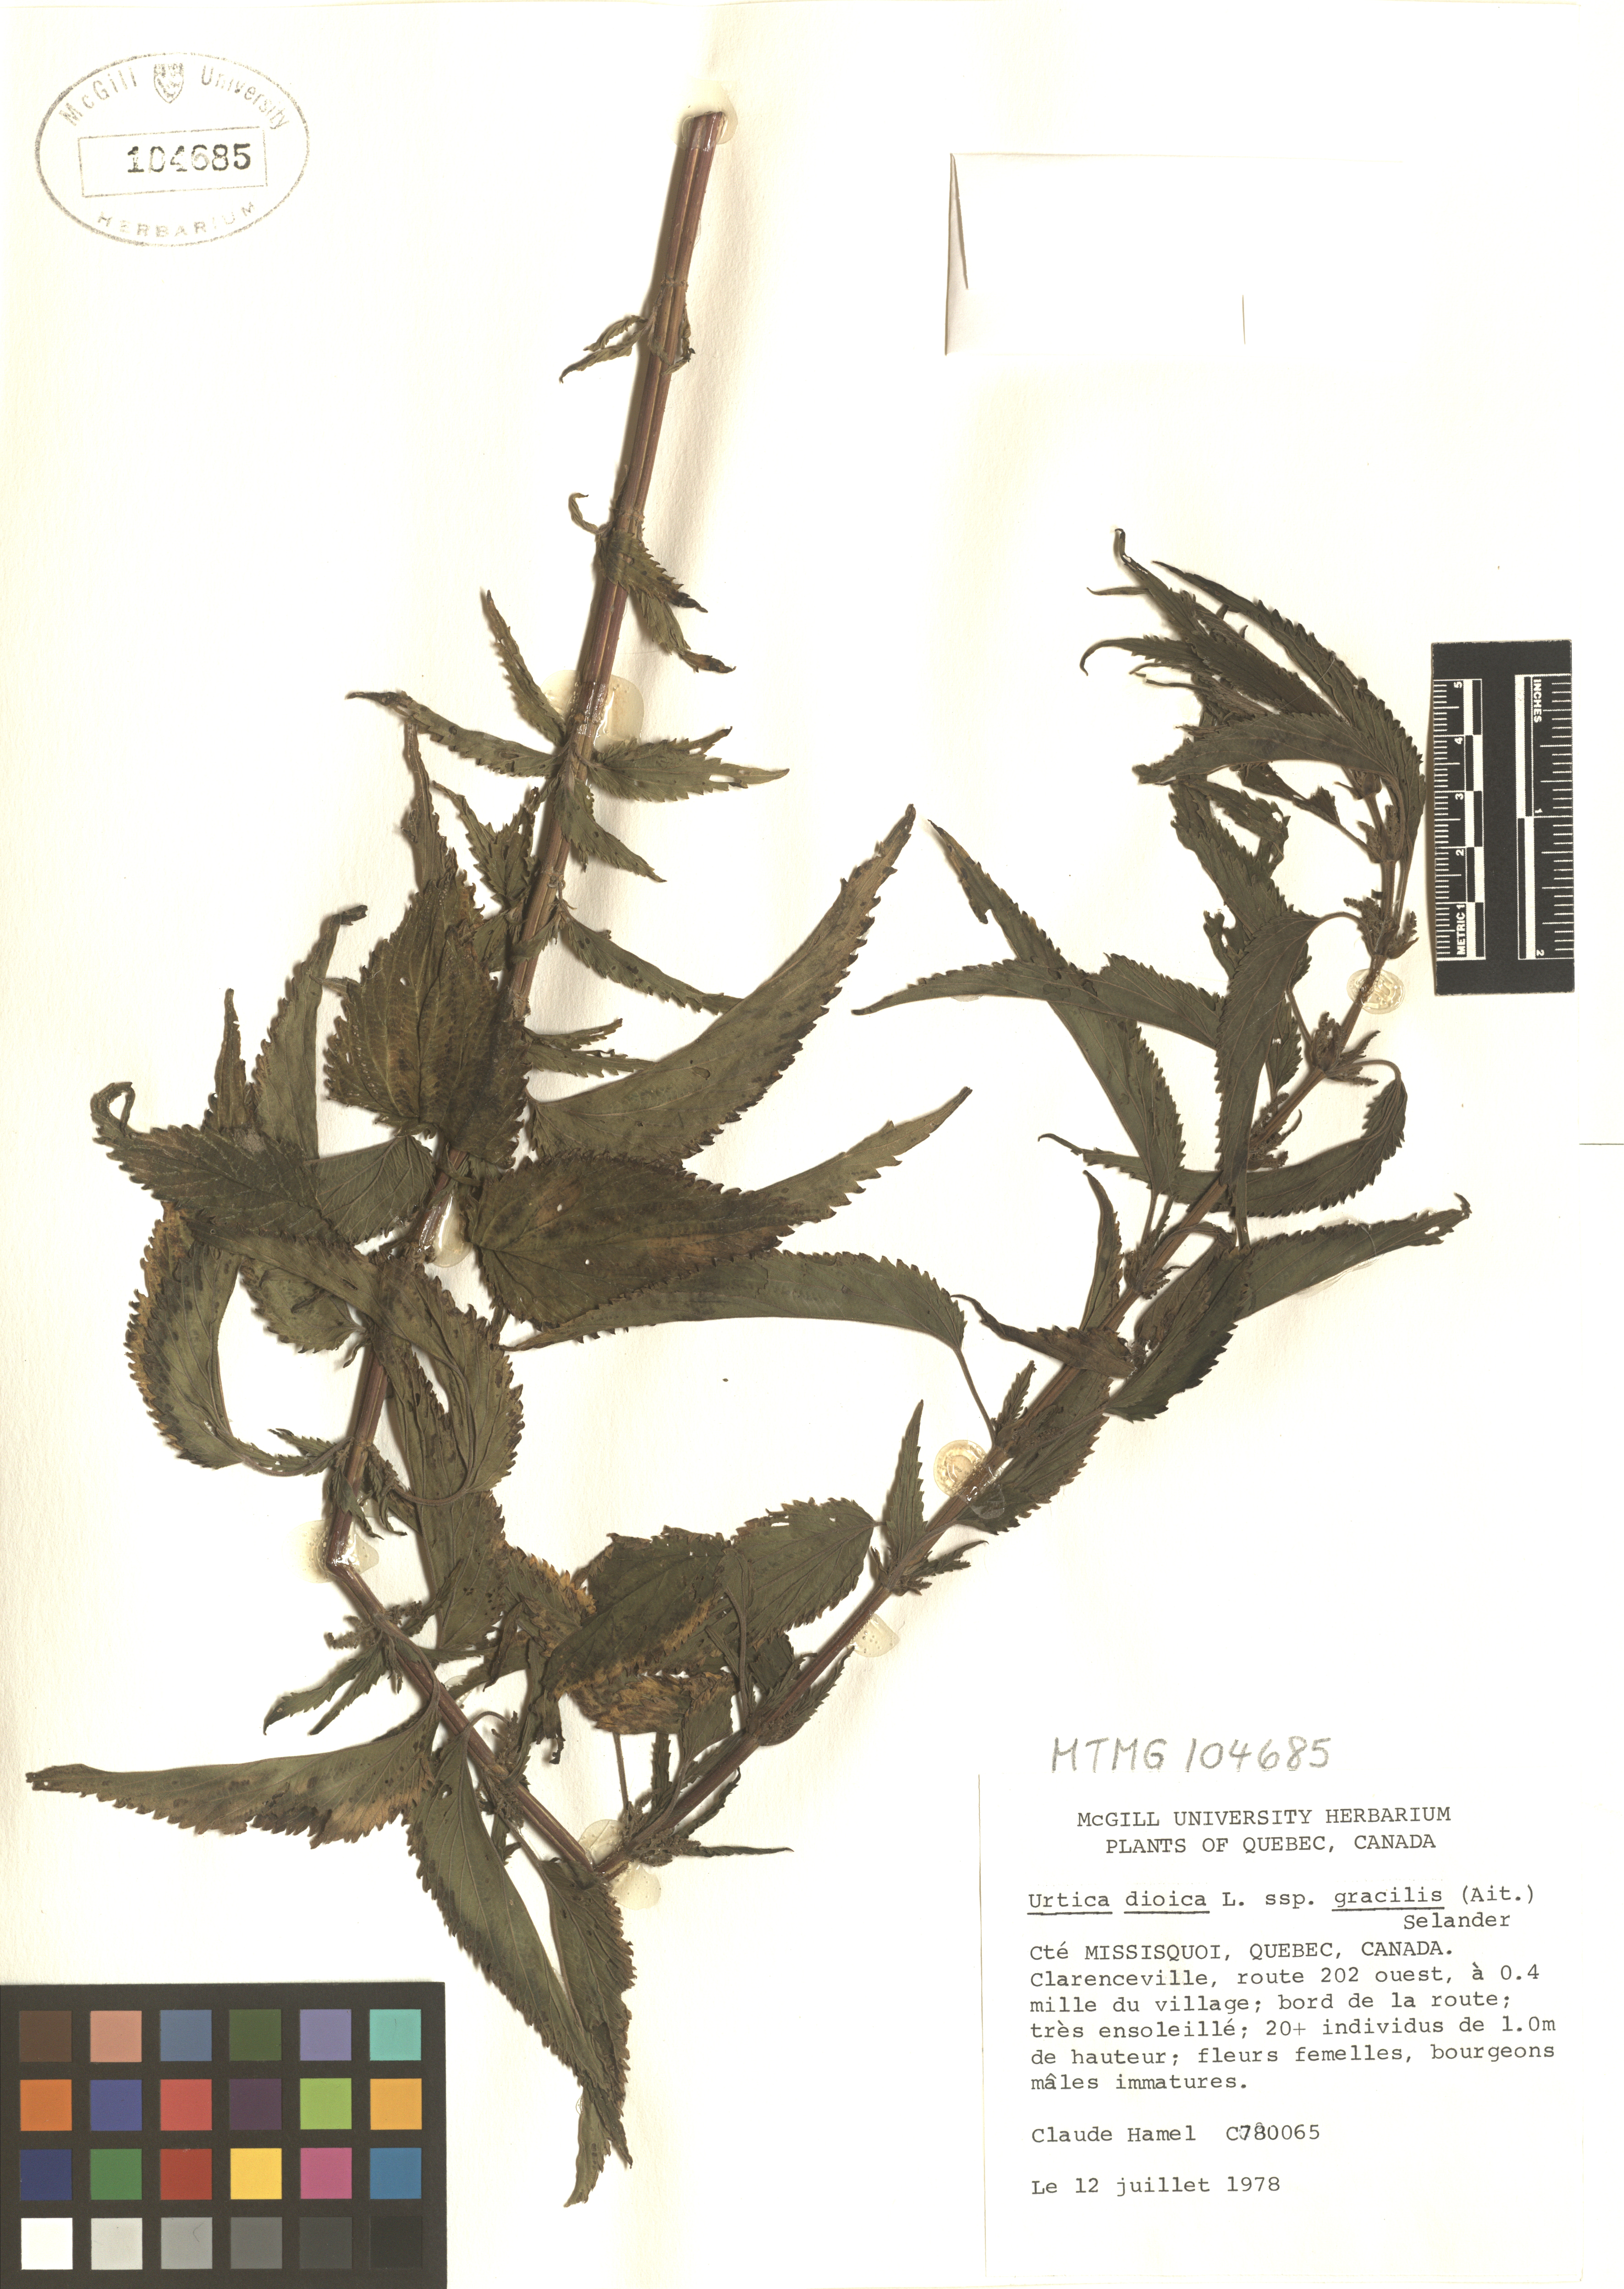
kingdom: Plantae
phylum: Tracheophyta
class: Magnoliopsida
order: Rosales
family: Urticaceae
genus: Urtica
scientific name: Urtica gracilis
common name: Slender stinging nettle
